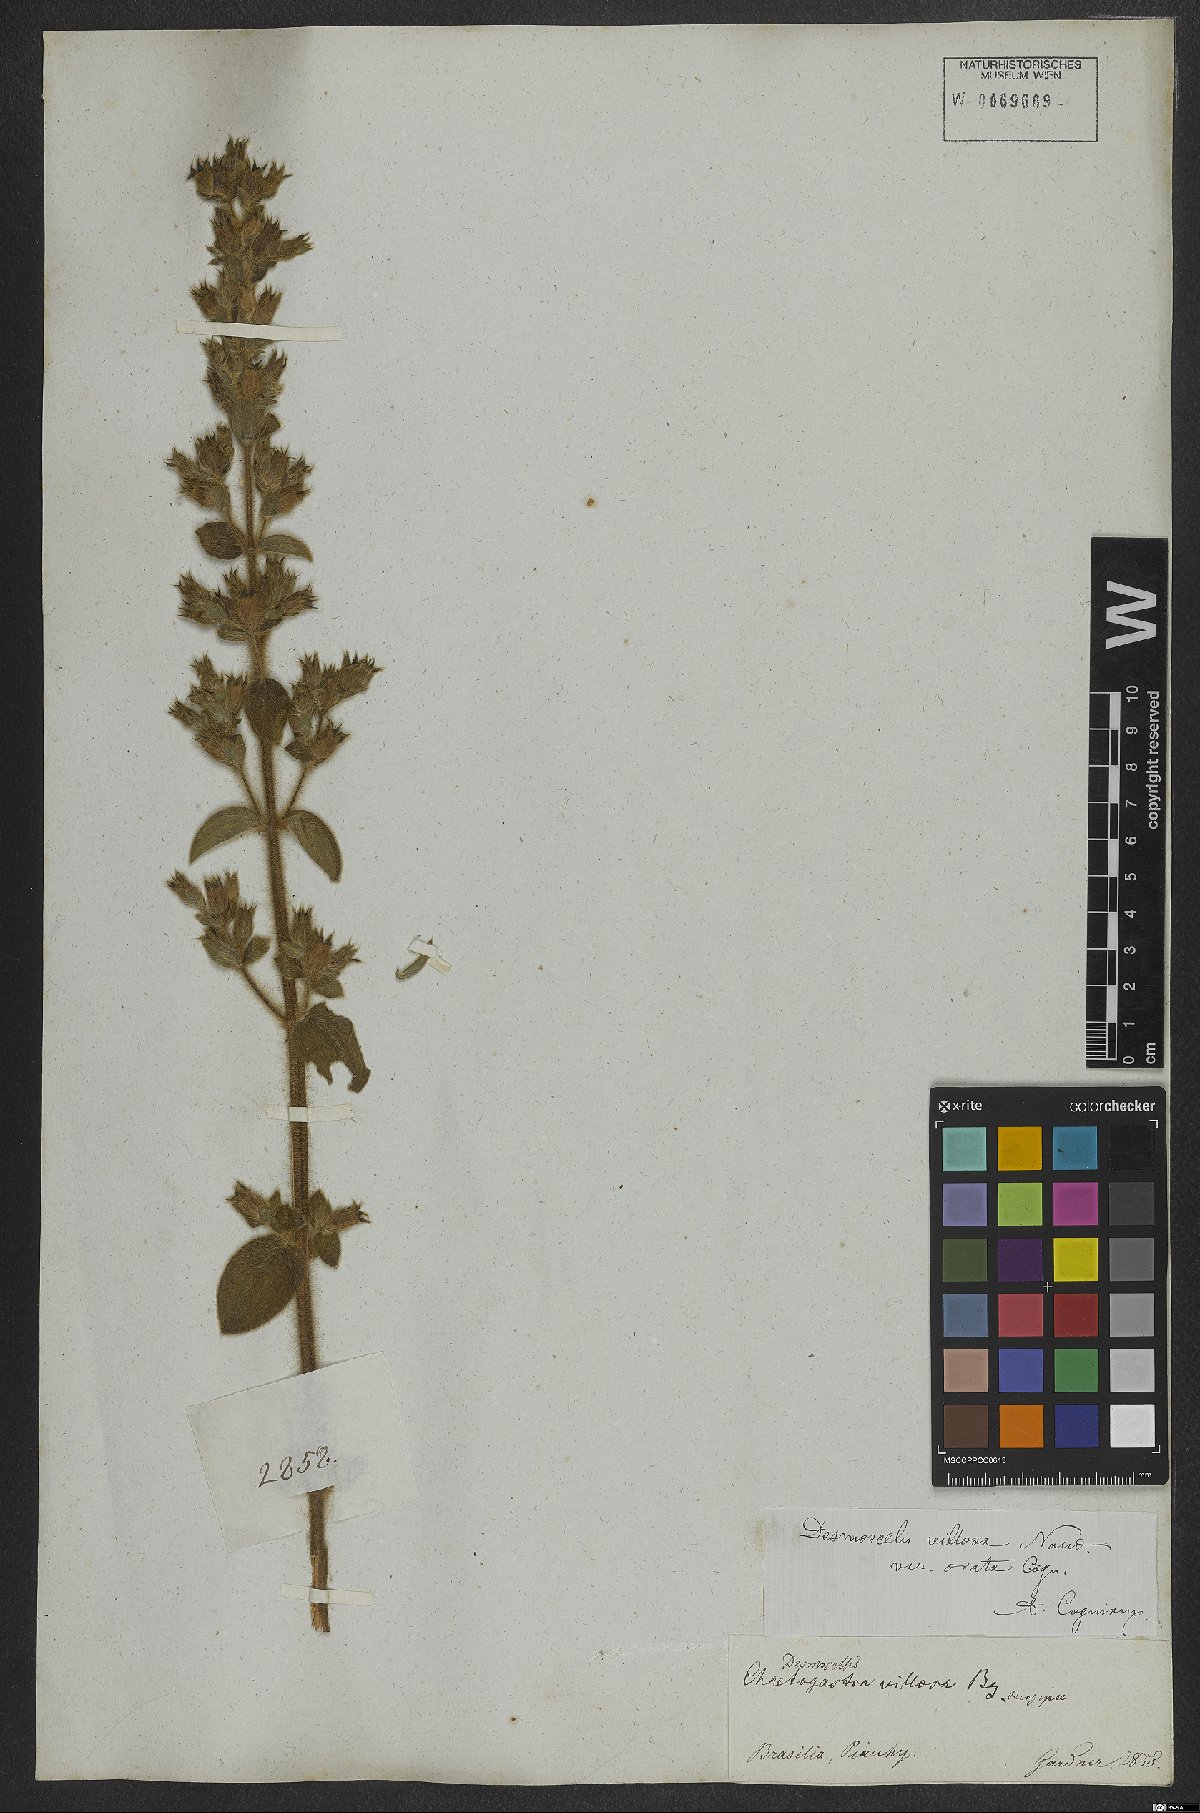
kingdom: Plantae
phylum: Tracheophyta
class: Magnoliopsida
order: Myrtales
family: Melastomataceae
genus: Desmoscelis
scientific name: Desmoscelis villosa
